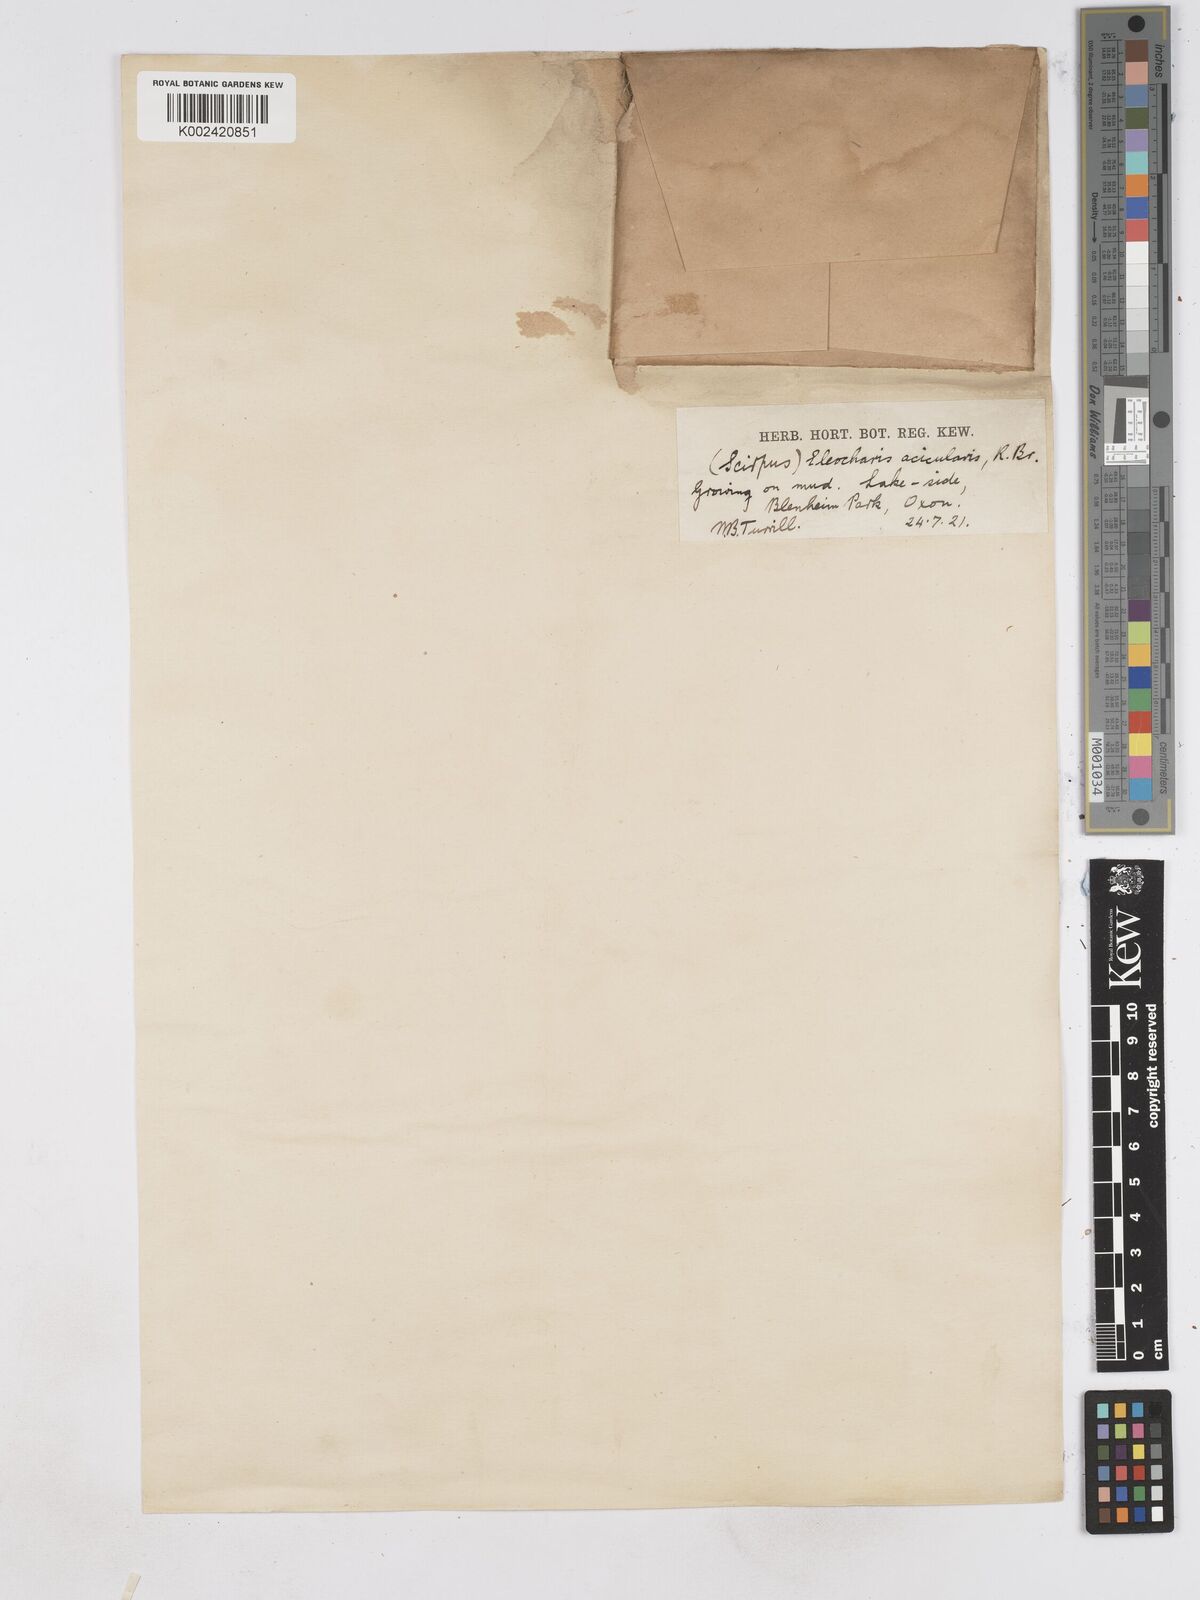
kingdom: Plantae
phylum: Tracheophyta
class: Liliopsida
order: Poales
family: Cyperaceae
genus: Eleocharis
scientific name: Eleocharis acicularis
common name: Needle spike-rush
